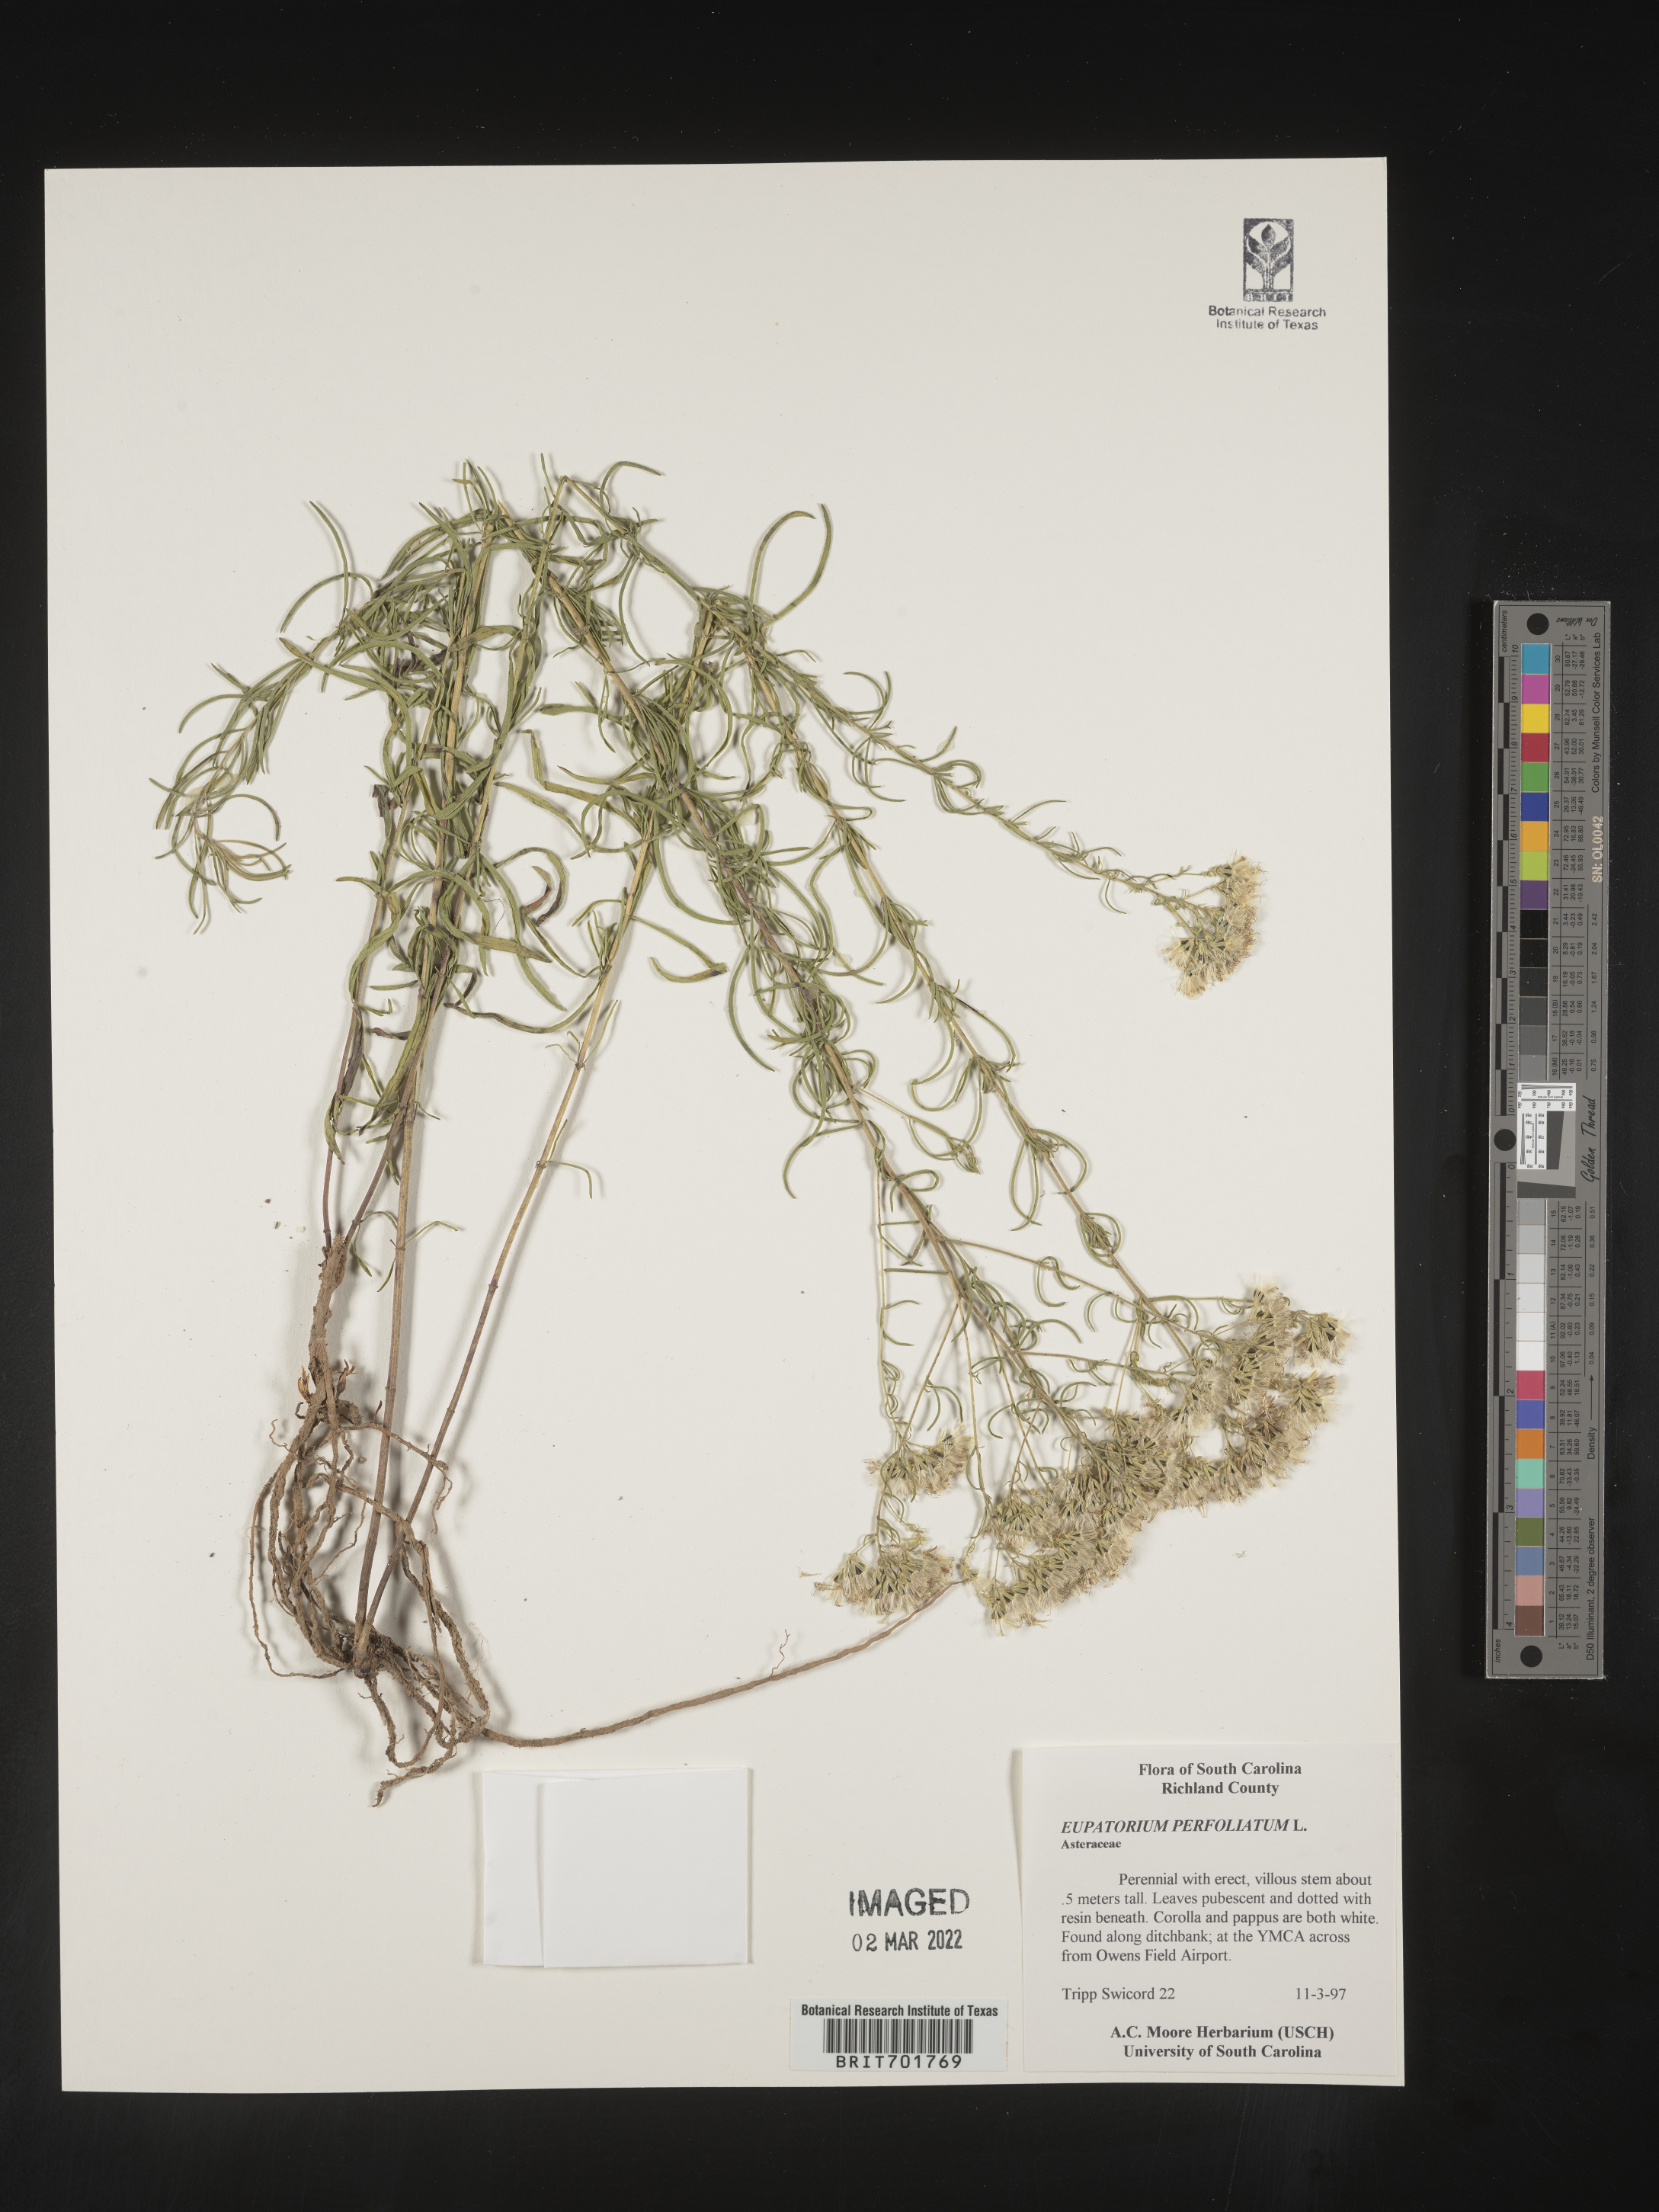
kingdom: Plantae
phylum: Tracheophyta
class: Magnoliopsida
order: Asterales
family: Asteraceae
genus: Eupatorium
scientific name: Eupatorium perfoliatum
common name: Boneset
